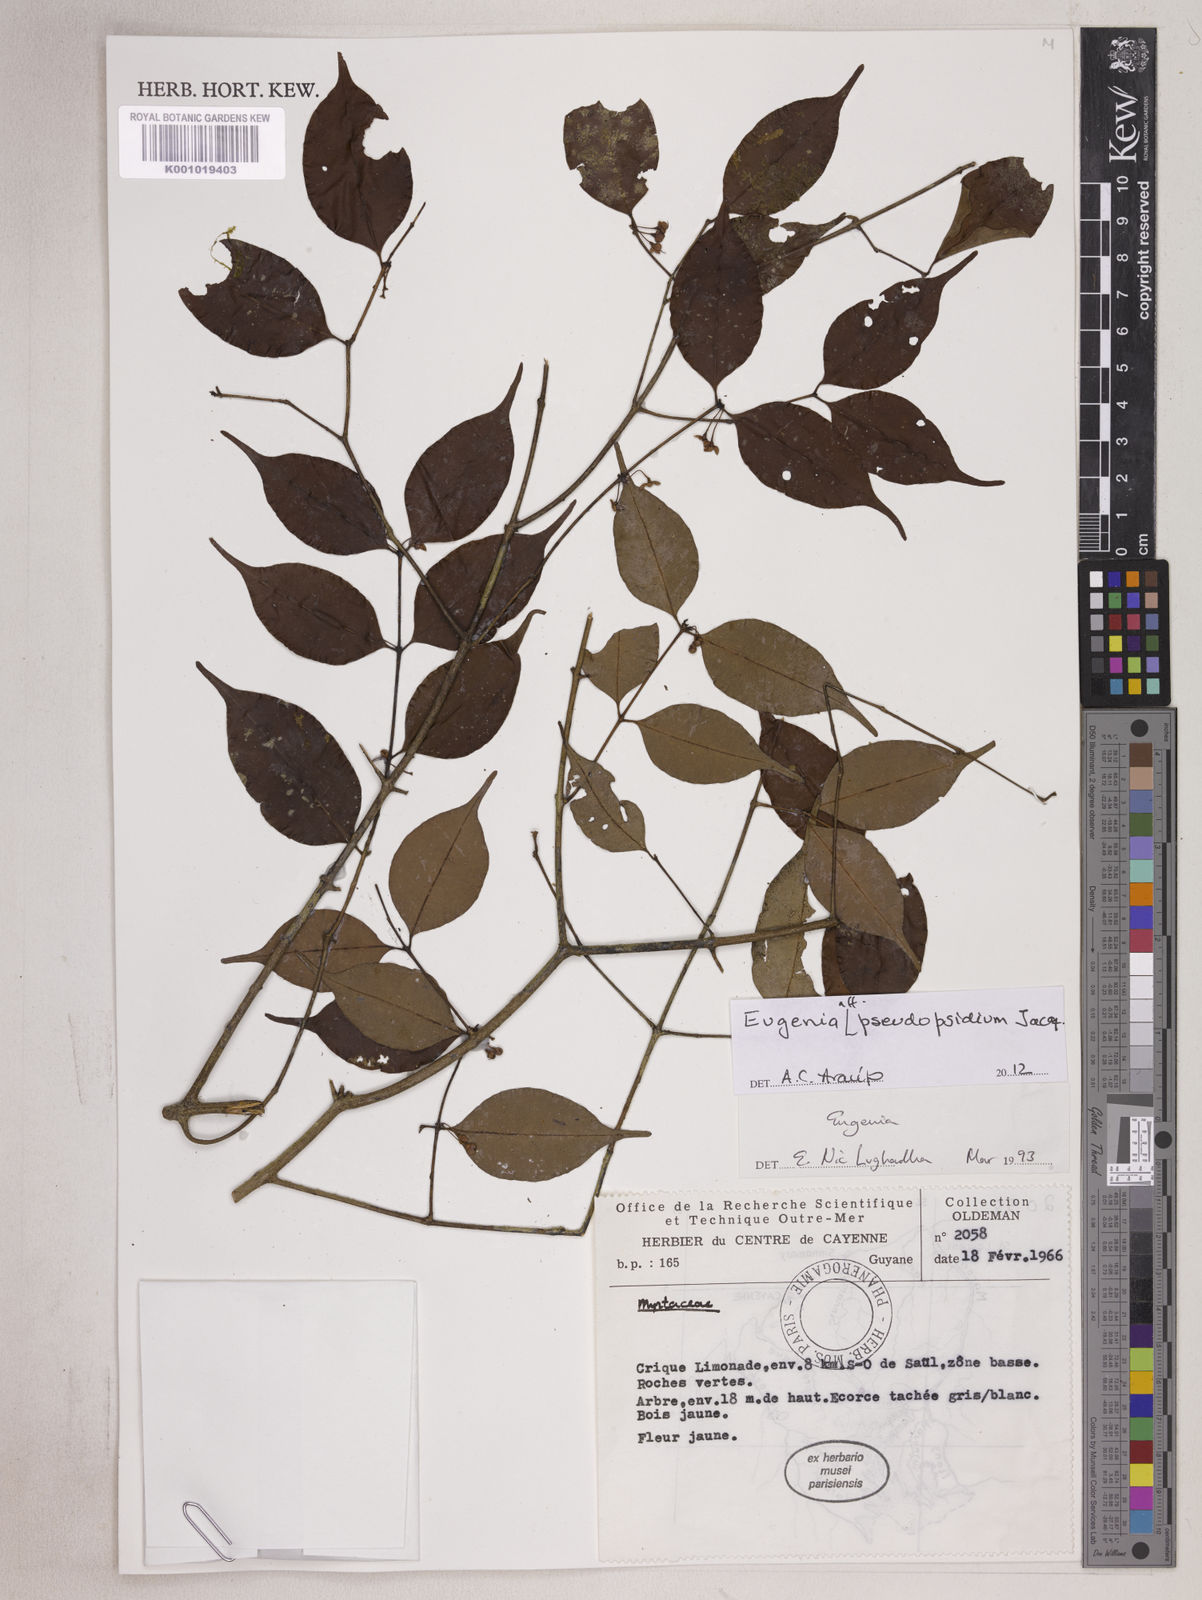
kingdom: Plantae
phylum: Tracheophyta
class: Magnoliopsida
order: Myrtales
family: Myrtaceae
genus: Eugenia
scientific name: Eugenia pseudopsidium
